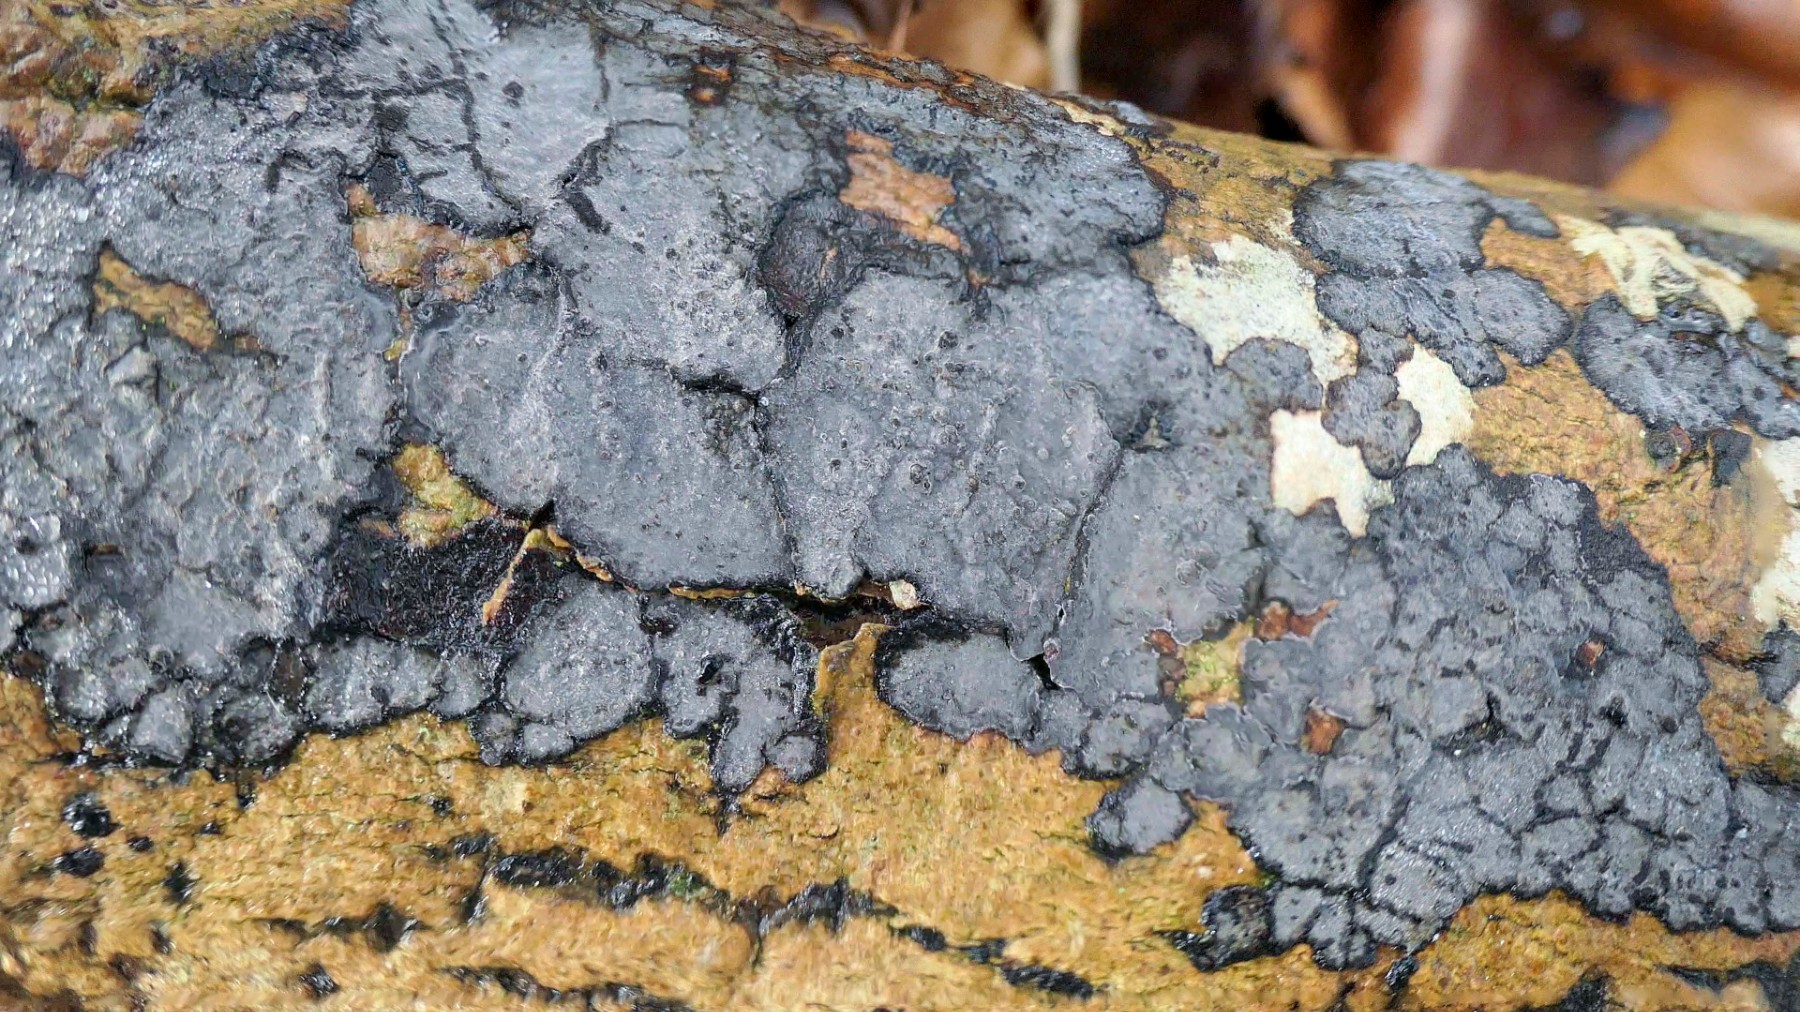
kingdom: Fungi
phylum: Basidiomycota
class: Agaricomycetes
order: Russulales
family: Peniophoraceae
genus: Peniophora
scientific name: Peniophora limitata
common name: mørkrandet voksskind
